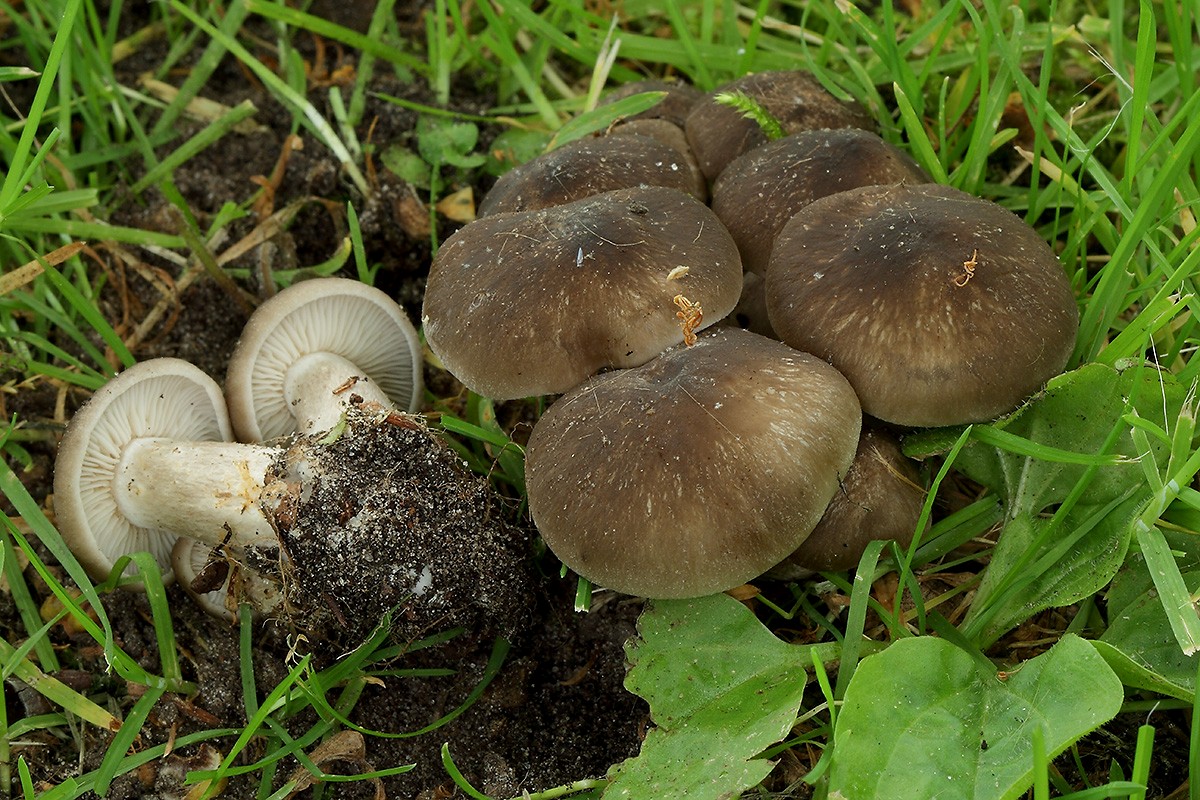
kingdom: Fungi
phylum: Basidiomycota
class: Agaricomycetes
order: Agaricales
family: Lyophyllaceae
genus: Lyophyllum
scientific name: Lyophyllum decastes
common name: Clustered domecap
